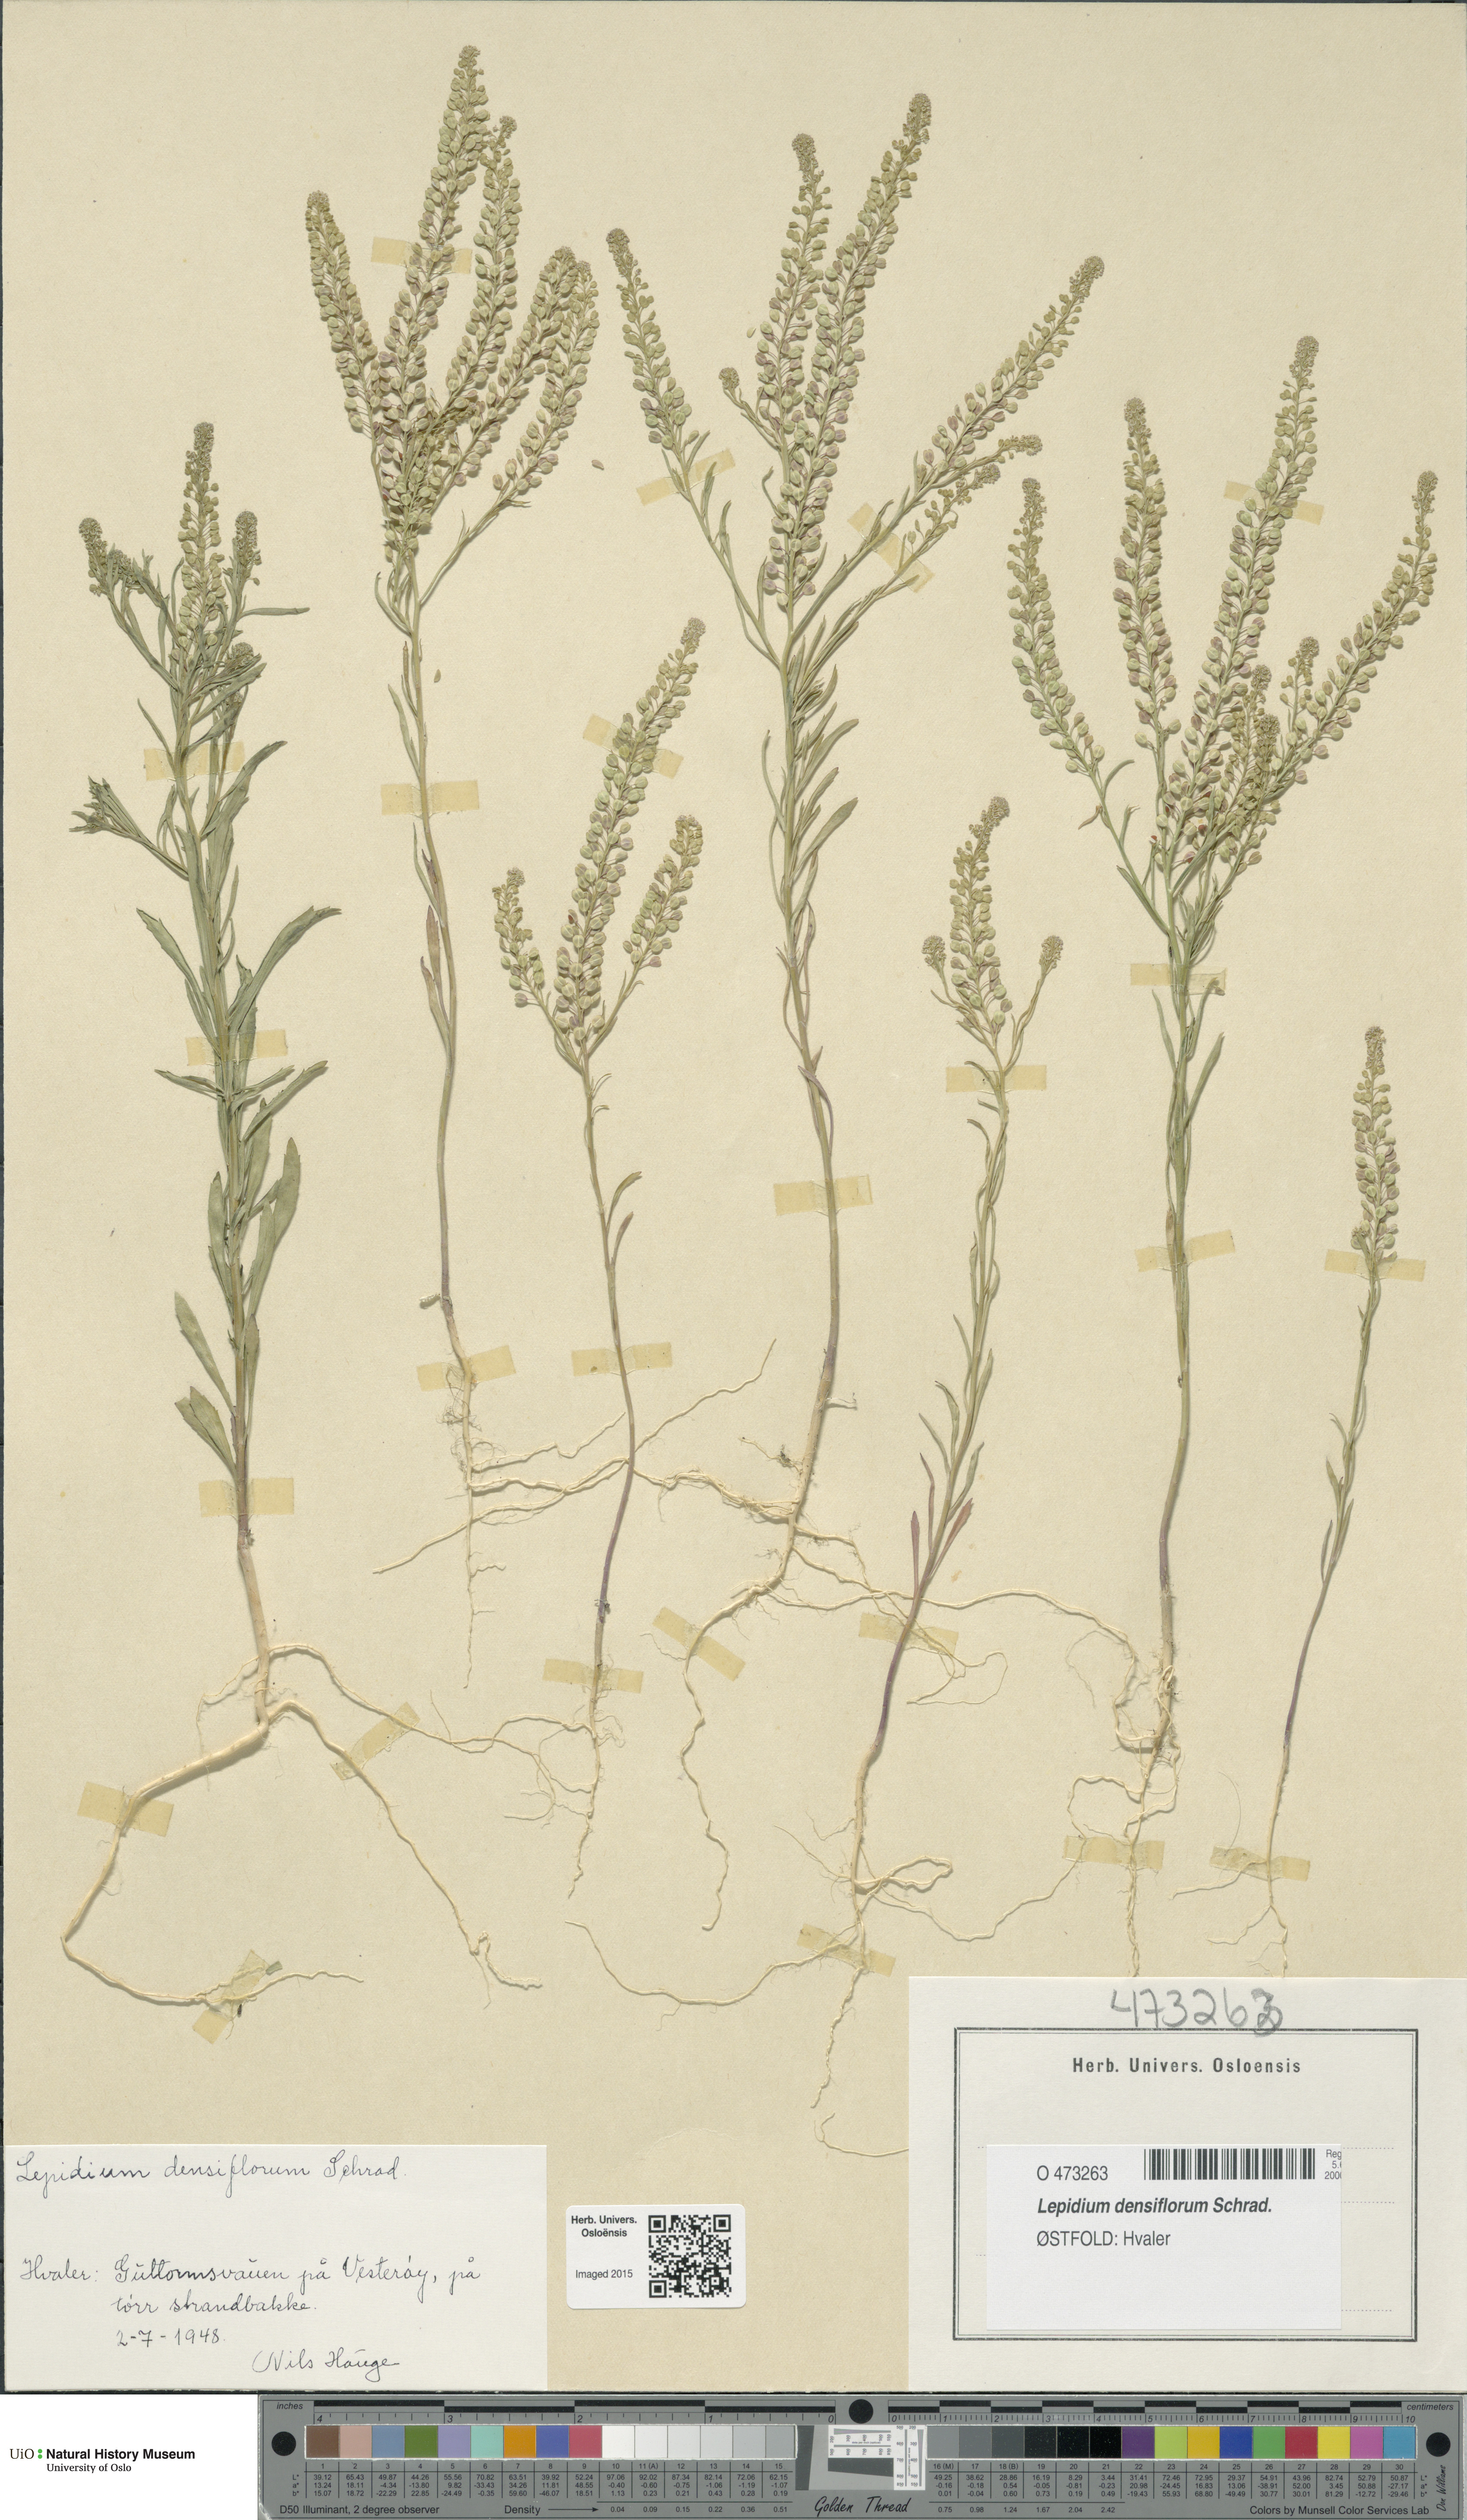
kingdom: Plantae
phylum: Tracheophyta
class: Magnoliopsida
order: Brassicales
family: Brassicaceae
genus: Lepidium
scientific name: Lepidium densiflorum
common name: Miner's pepperwort
